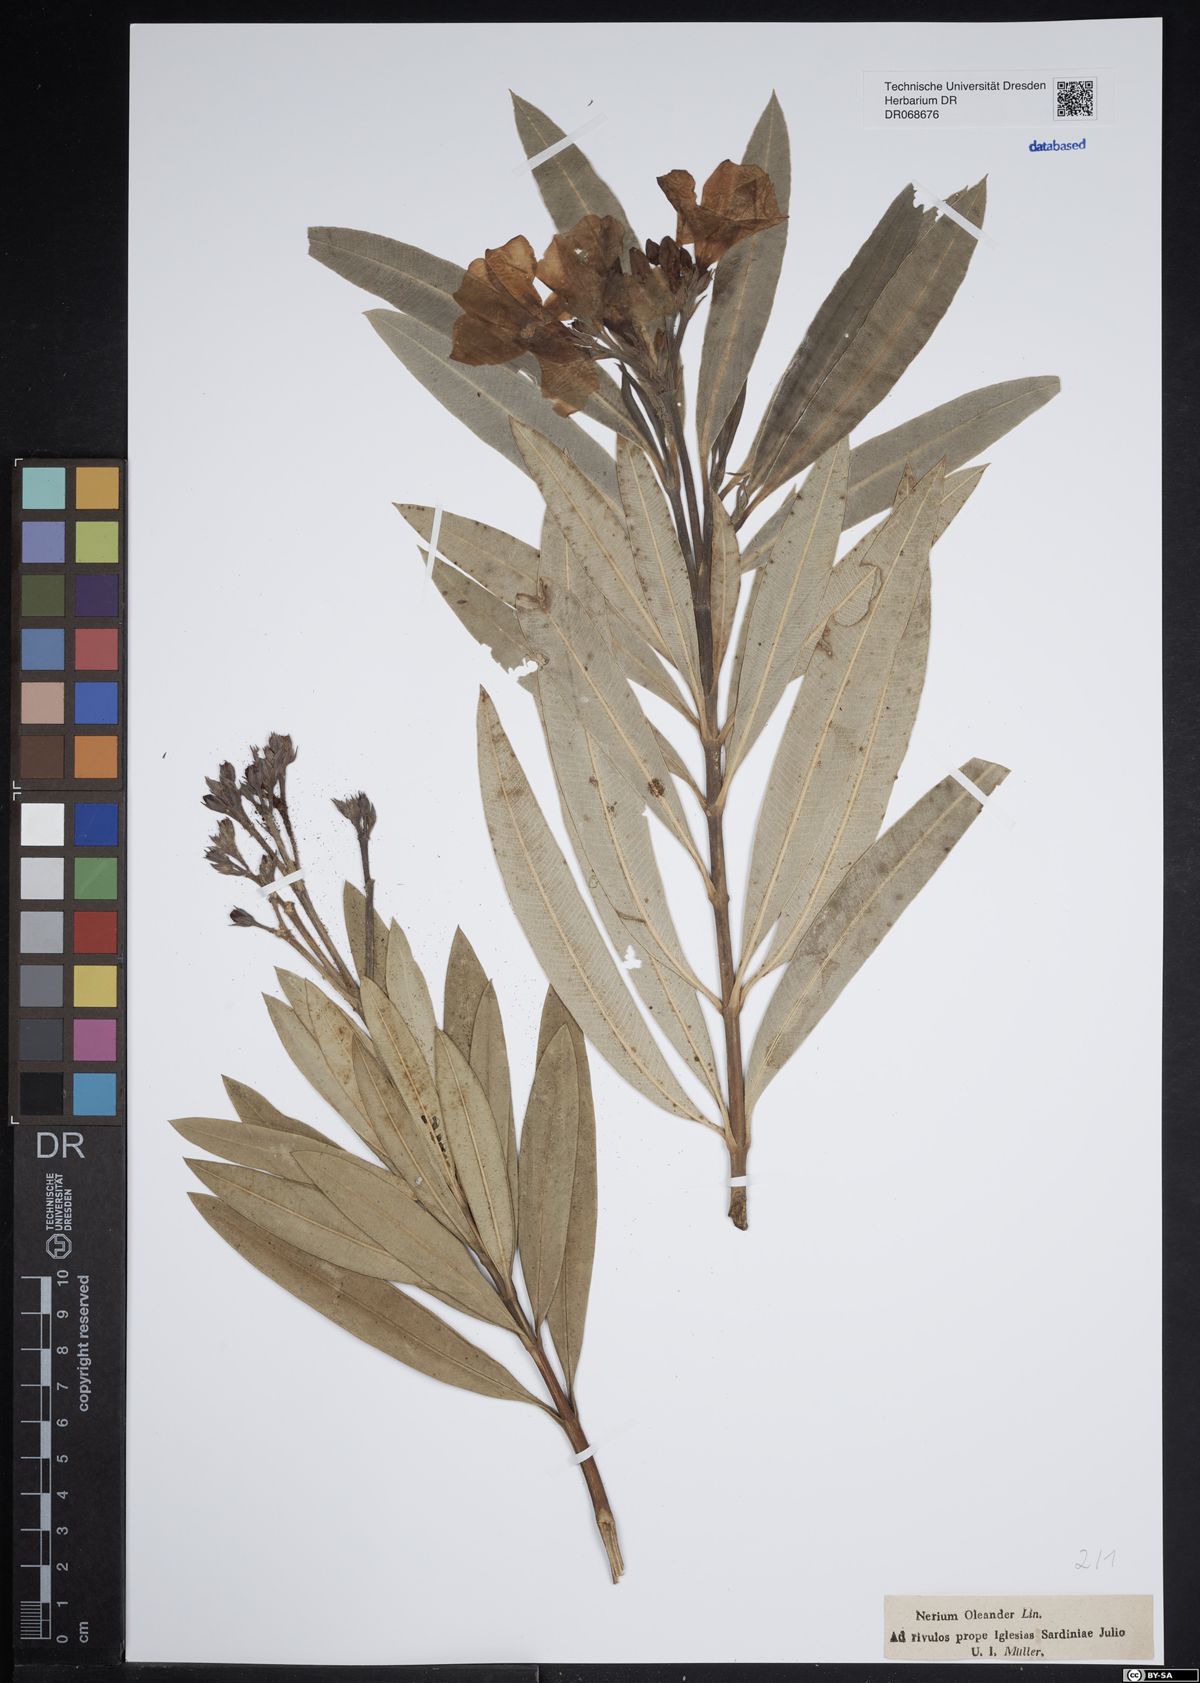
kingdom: Plantae
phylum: Tracheophyta
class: Magnoliopsida
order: Gentianales
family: Apocynaceae
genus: Nerium
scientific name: Nerium oleander
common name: Oleander
